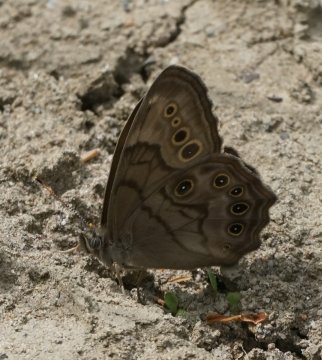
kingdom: Animalia
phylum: Arthropoda
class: Insecta
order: Lepidoptera
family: Nymphalidae
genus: Lethe
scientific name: Lethe anthedon
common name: Northern Pearly-Eye
